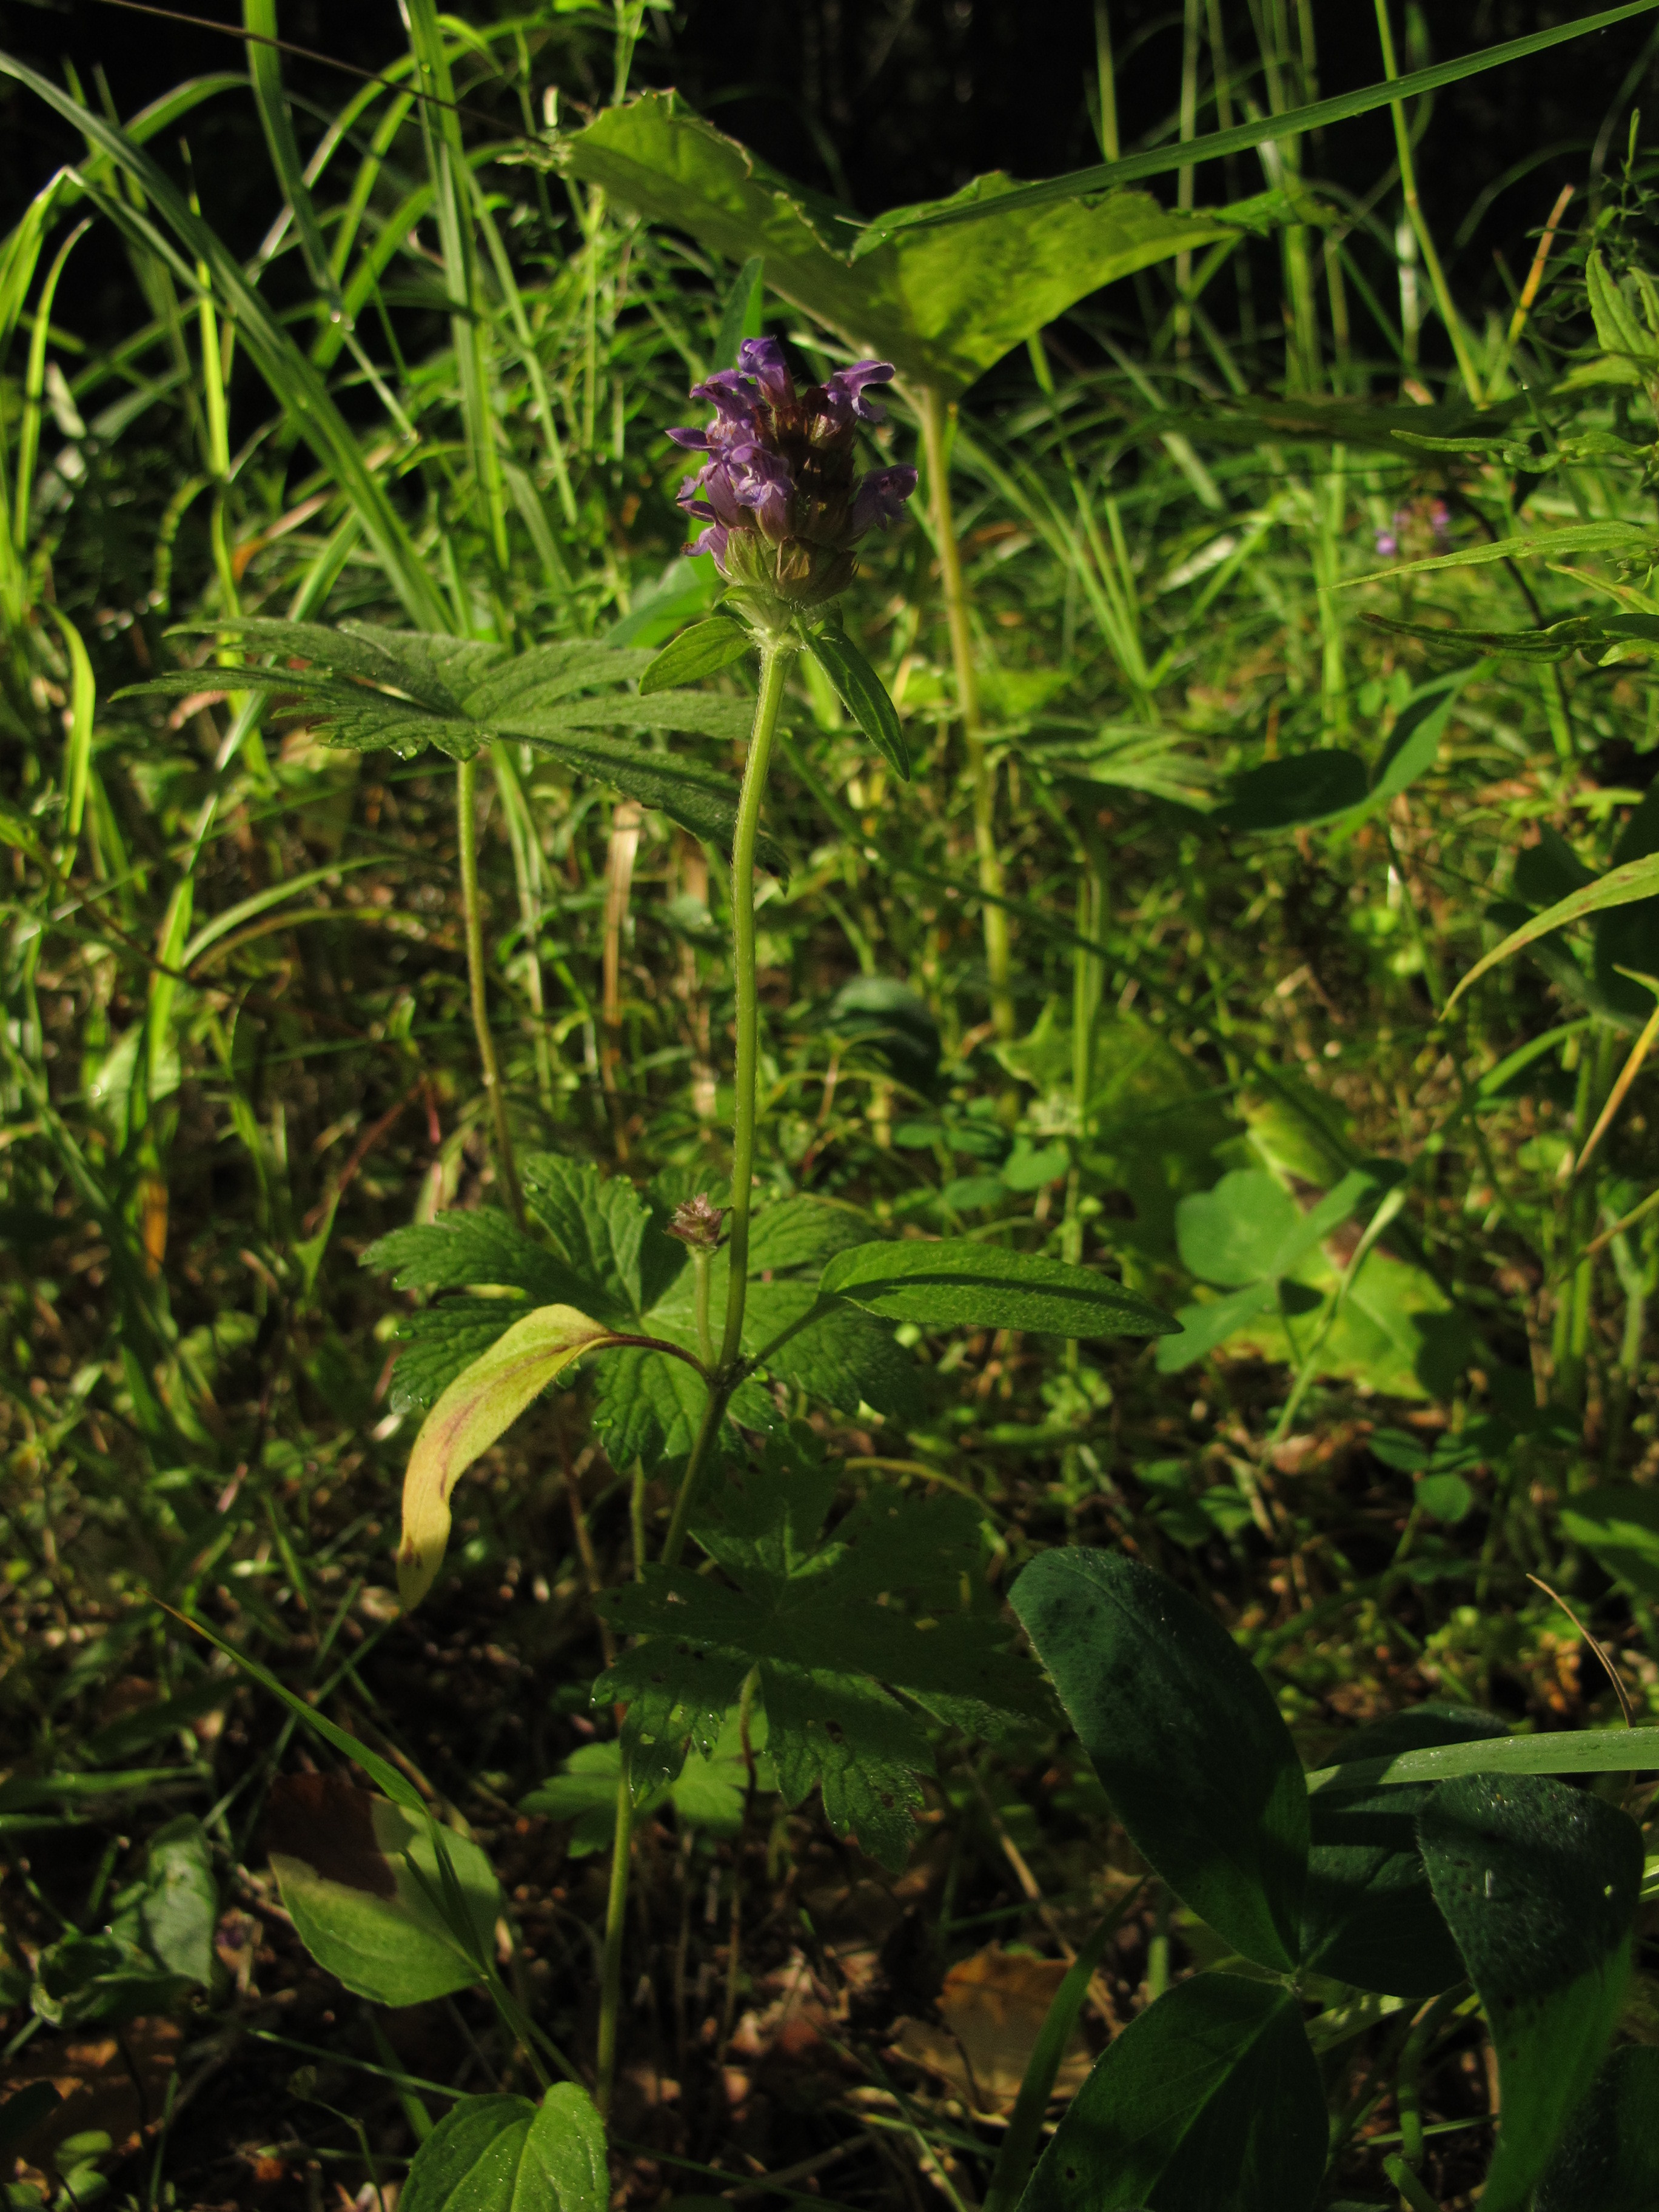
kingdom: Plantae
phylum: Tracheophyta
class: Magnoliopsida
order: Lamiales
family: Lamiaceae
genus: Prunella
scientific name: Prunella vulgaris
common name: Heal-all
